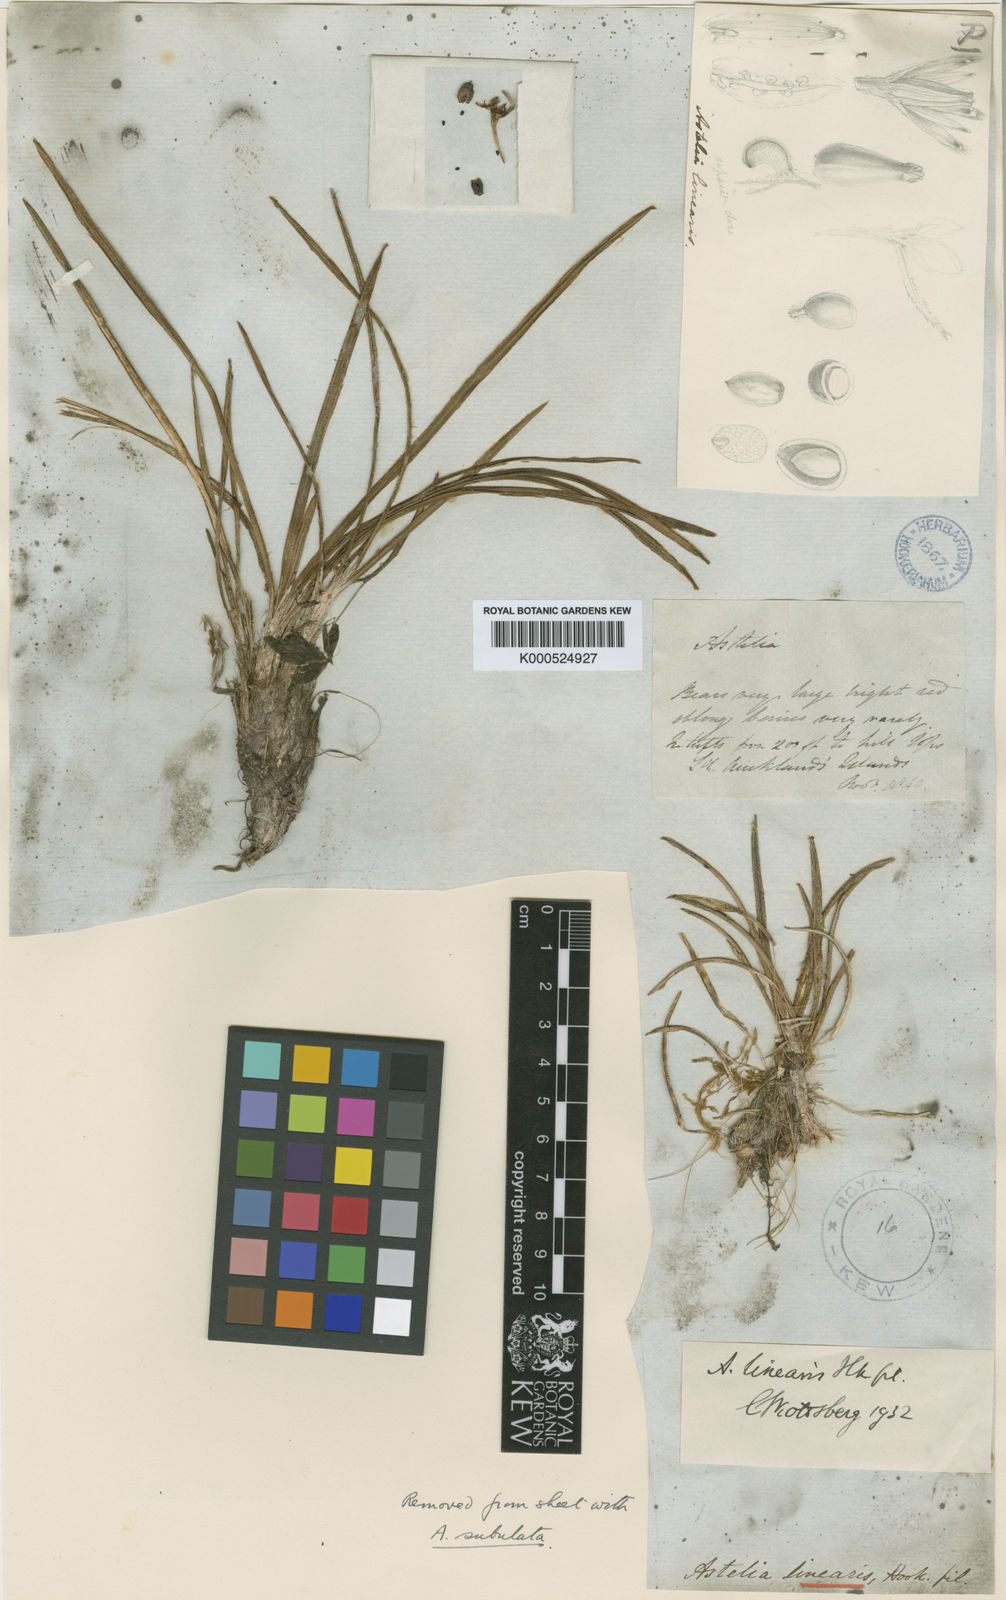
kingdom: Plantae
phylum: Tracheophyta
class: Liliopsida
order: Asparagales
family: Asteliaceae
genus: Astelia
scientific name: Astelia subulata
